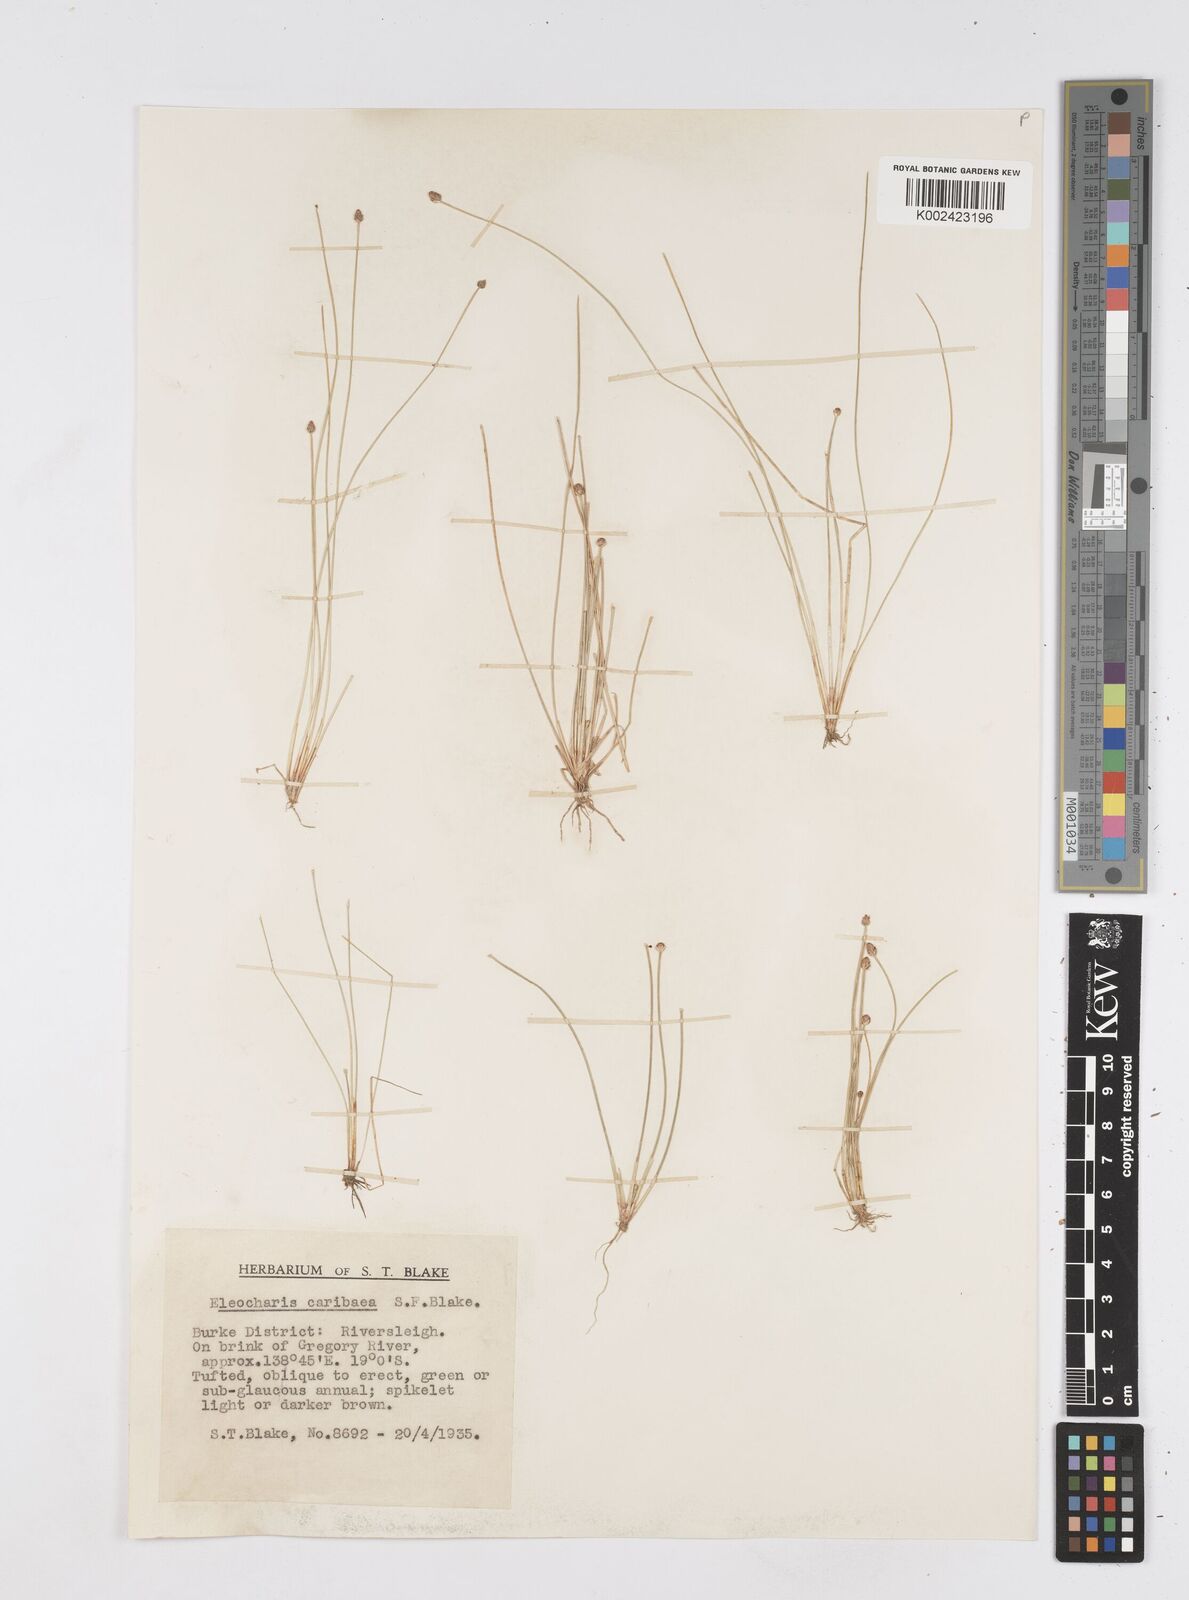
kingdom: Plantae
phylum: Tracheophyta
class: Liliopsida
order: Poales
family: Cyperaceae
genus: Eleocharis
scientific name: Eleocharis geniculata
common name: Canada spikesedge
